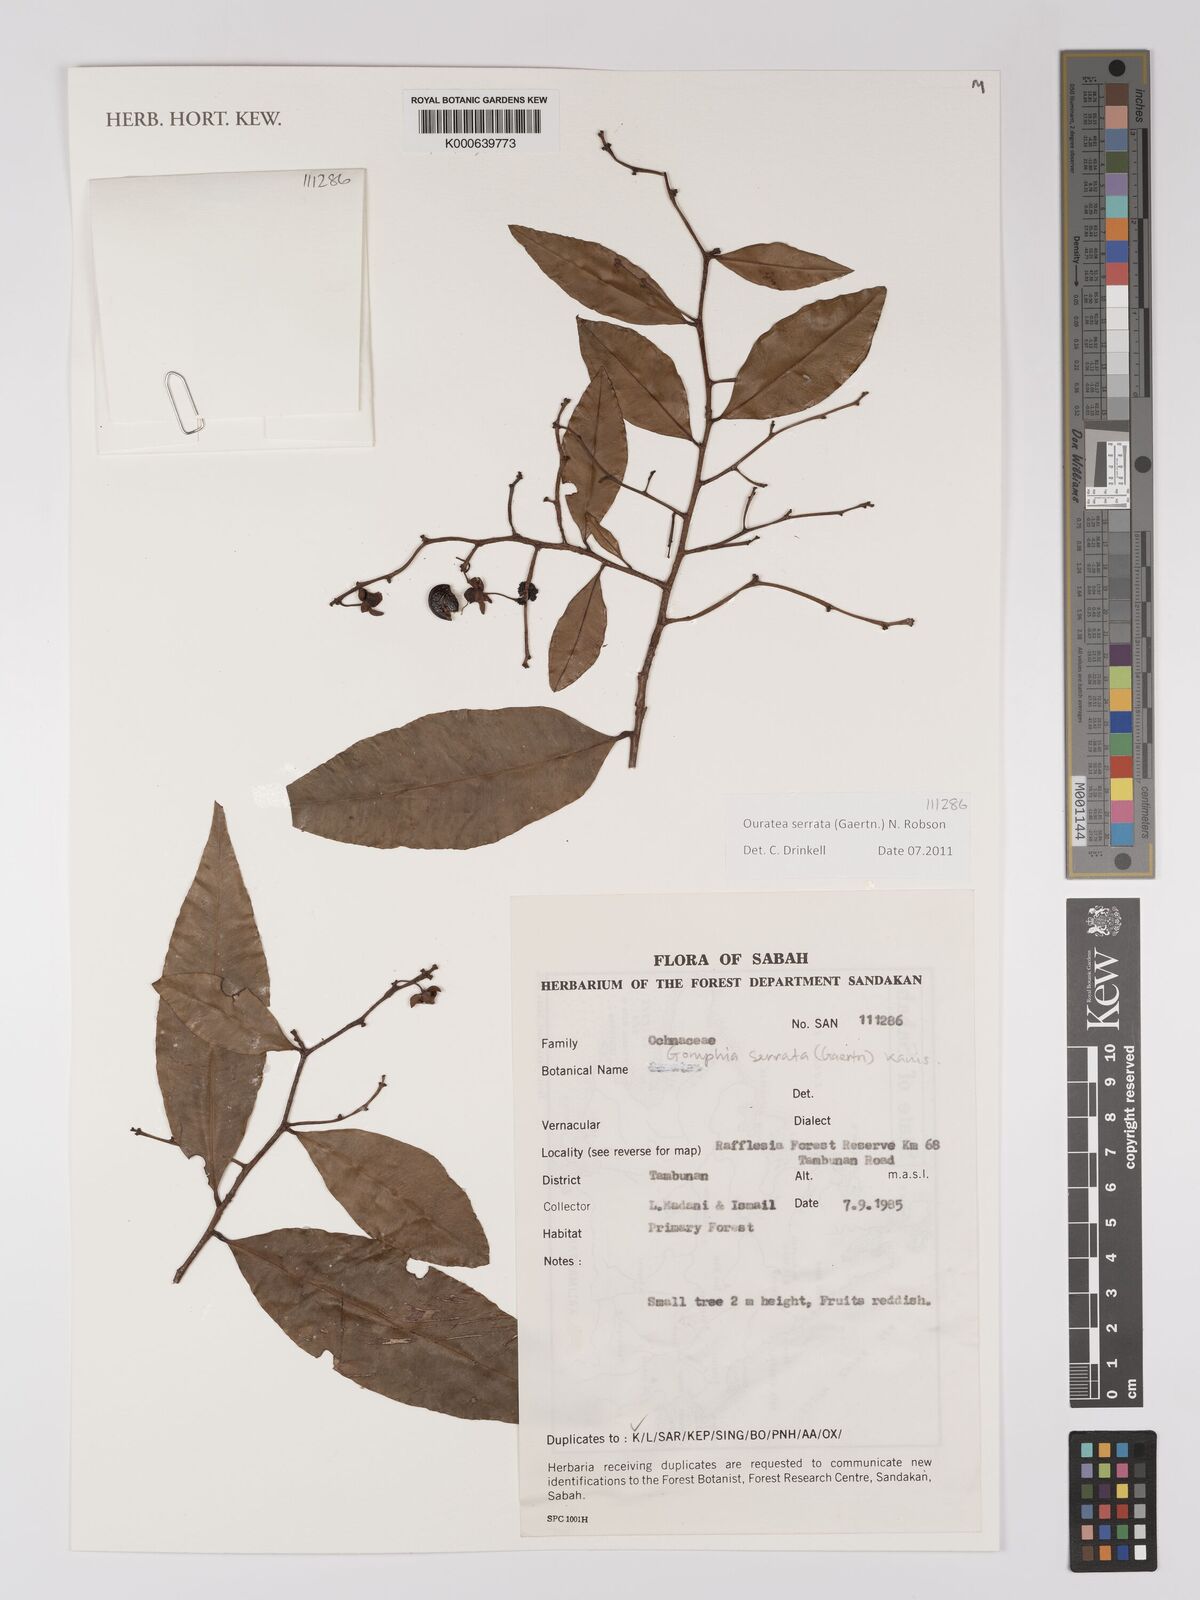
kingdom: Plantae
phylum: Tracheophyta
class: Magnoliopsida
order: Malpighiales
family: Ochnaceae
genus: Gomphia
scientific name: Gomphia serrata
